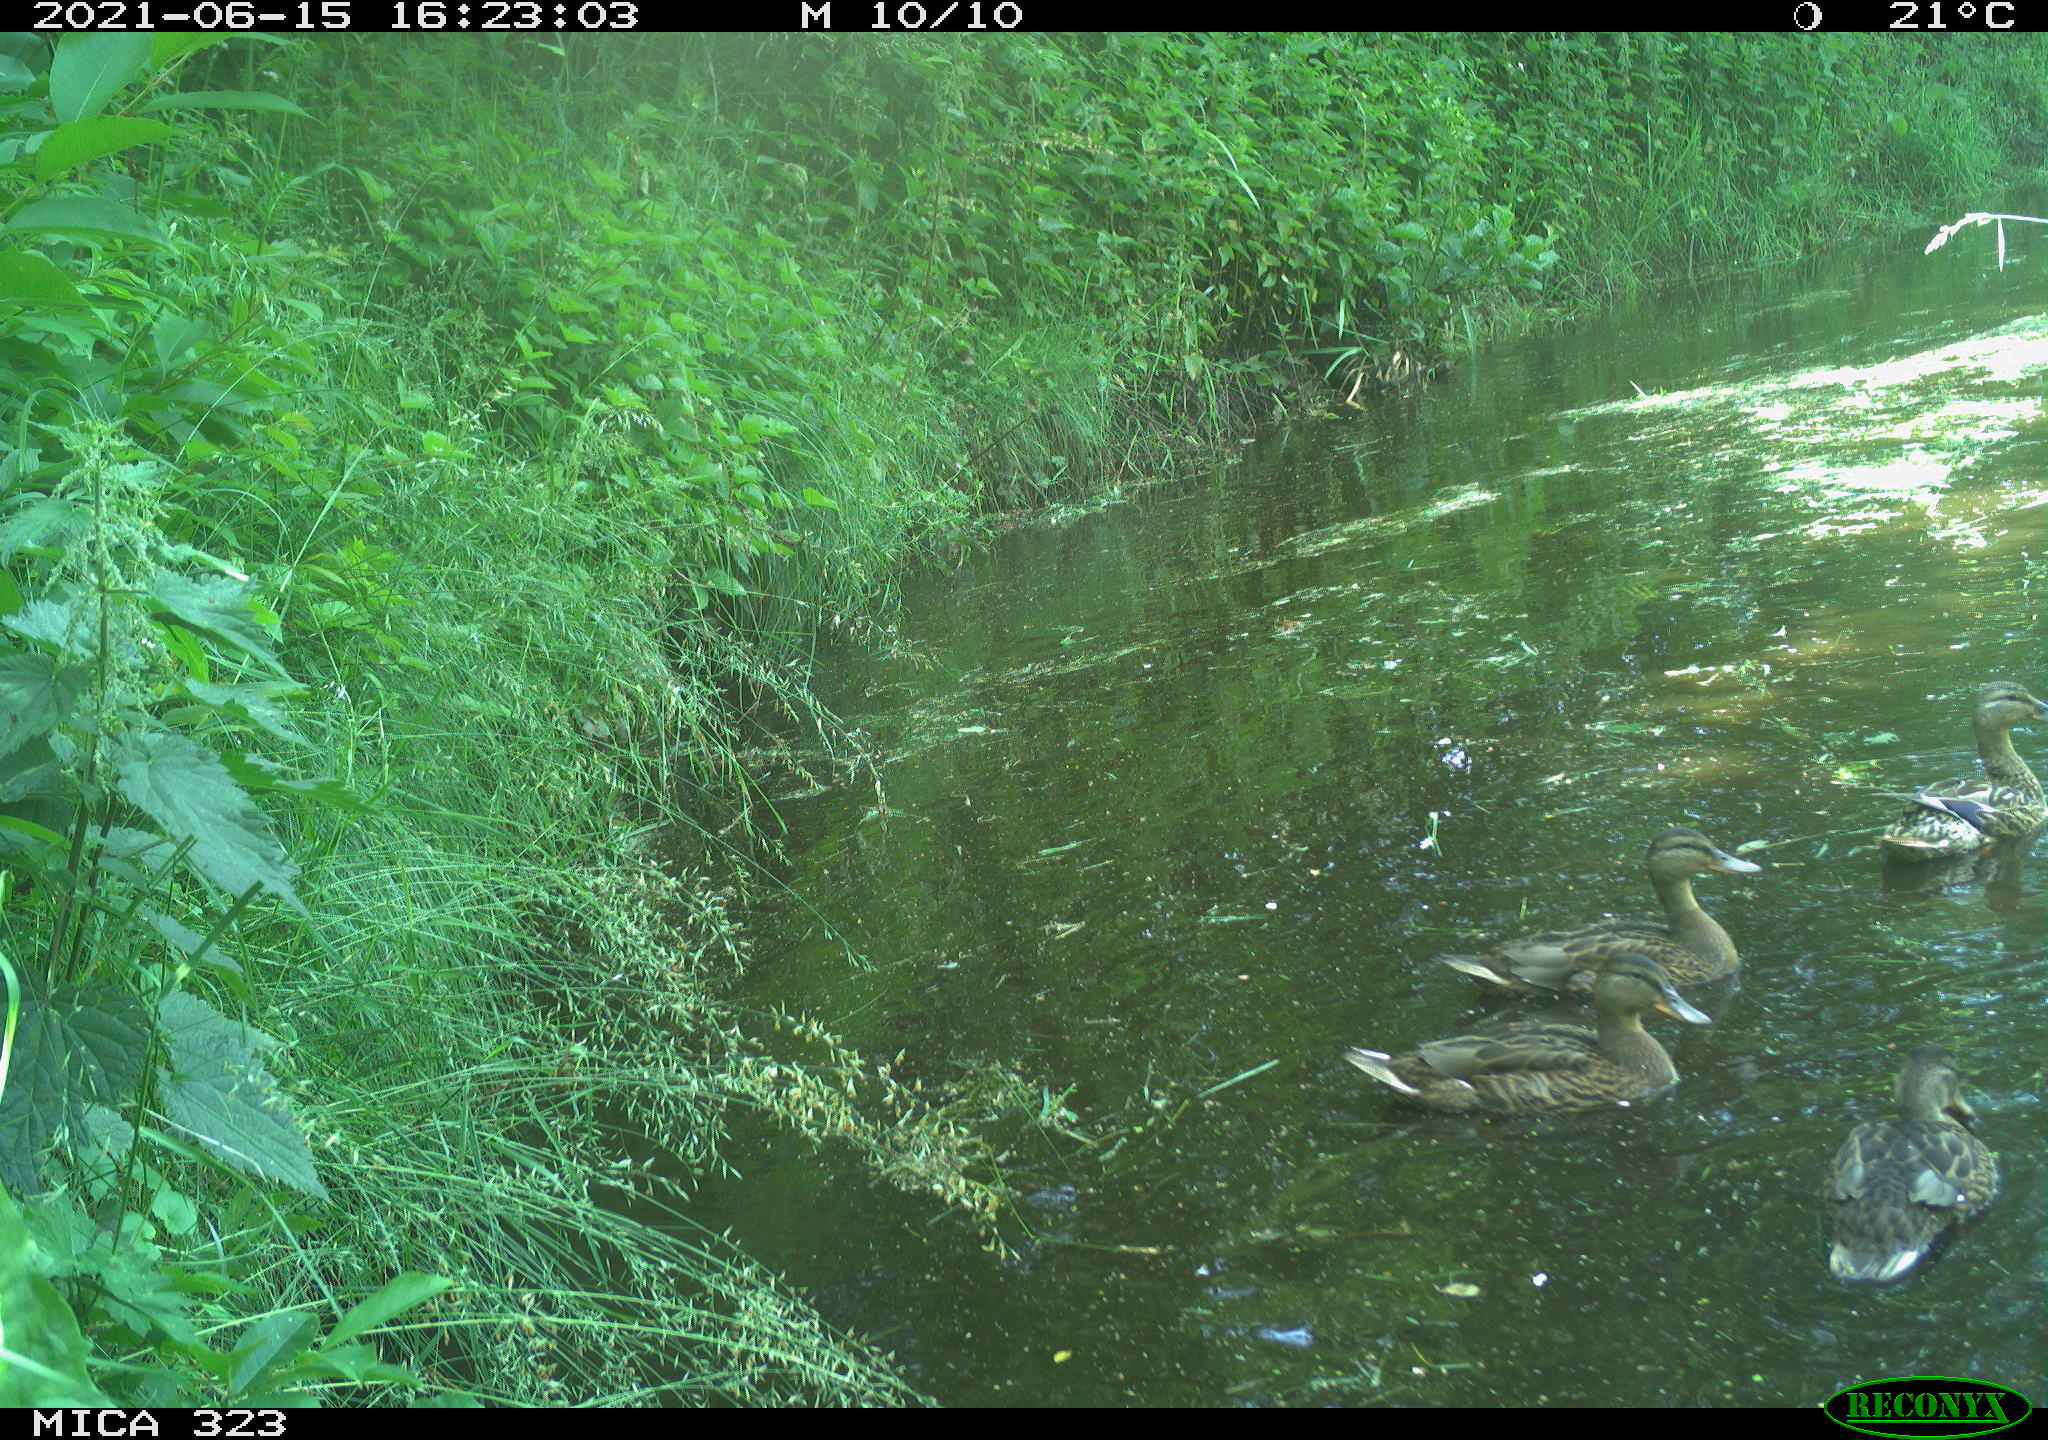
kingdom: Animalia
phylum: Chordata
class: Aves
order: Anseriformes
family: Anatidae
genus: Anas
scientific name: Anas platyrhynchos
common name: Mallard
